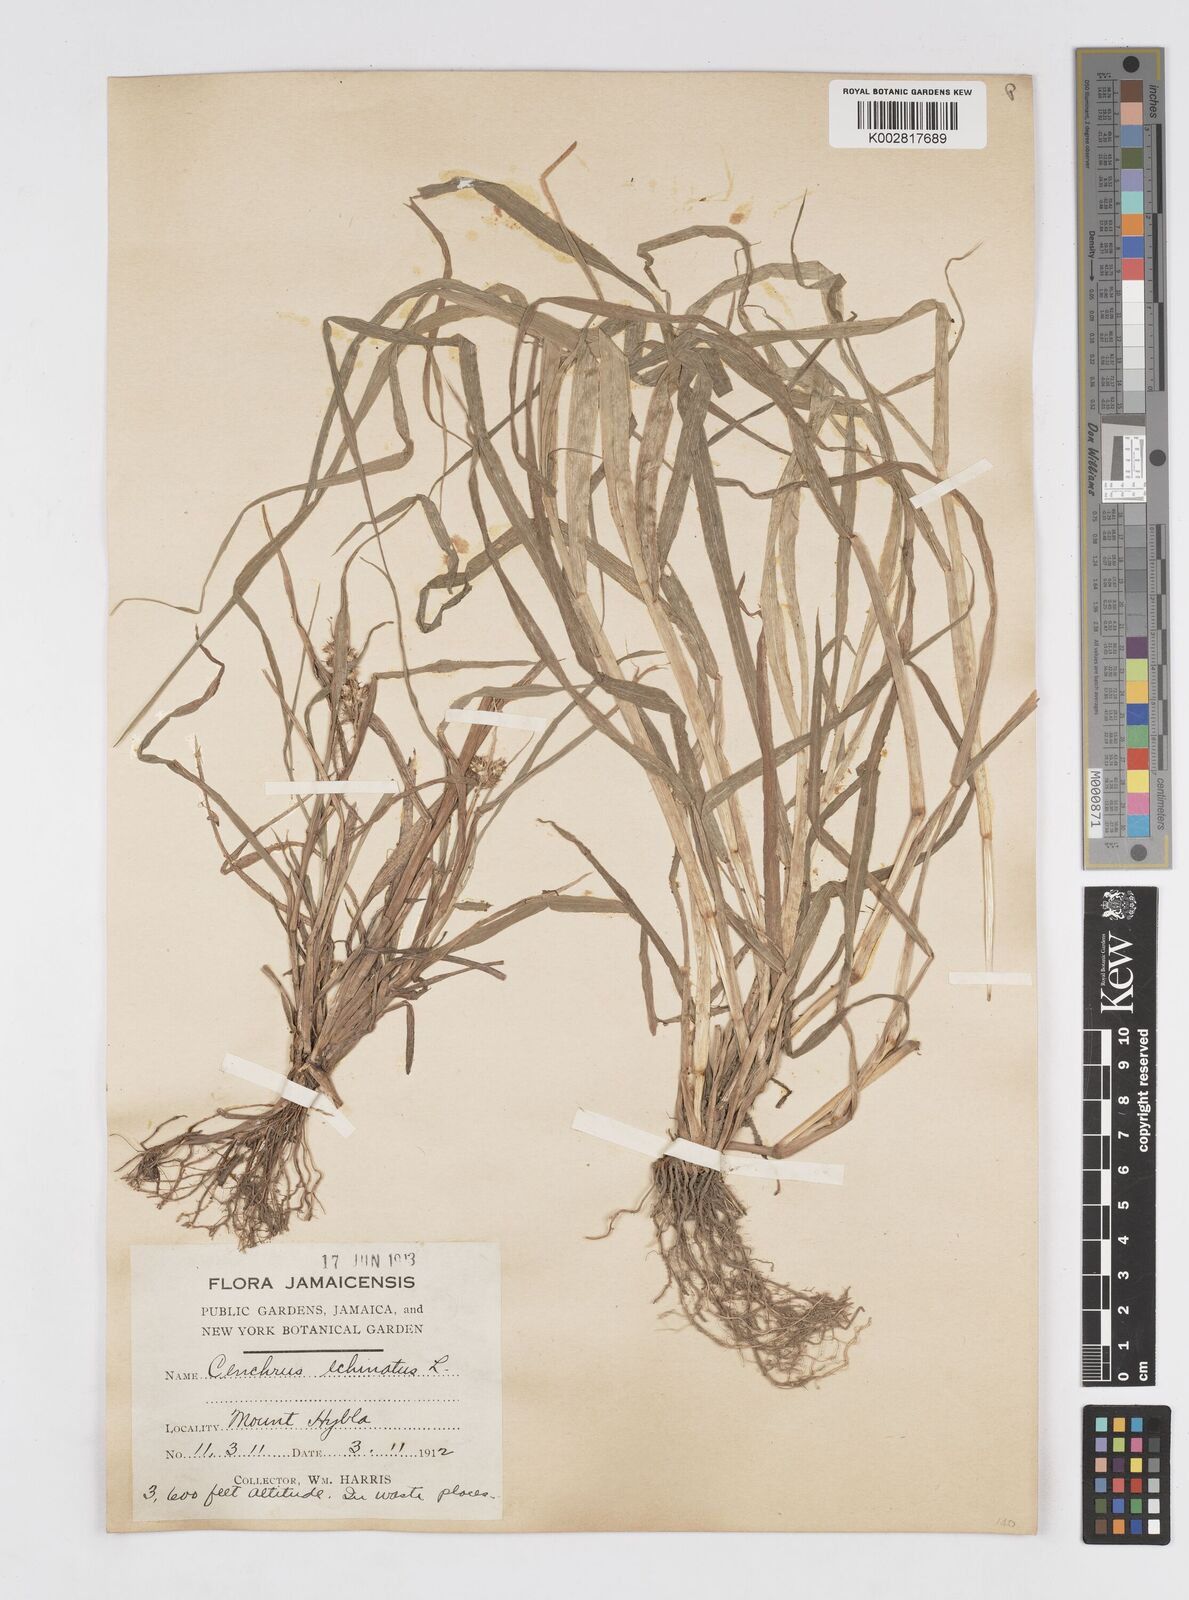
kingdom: Plantae
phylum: Tracheophyta
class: Liliopsida
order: Poales
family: Poaceae
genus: Cenchrus
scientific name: Cenchrus
